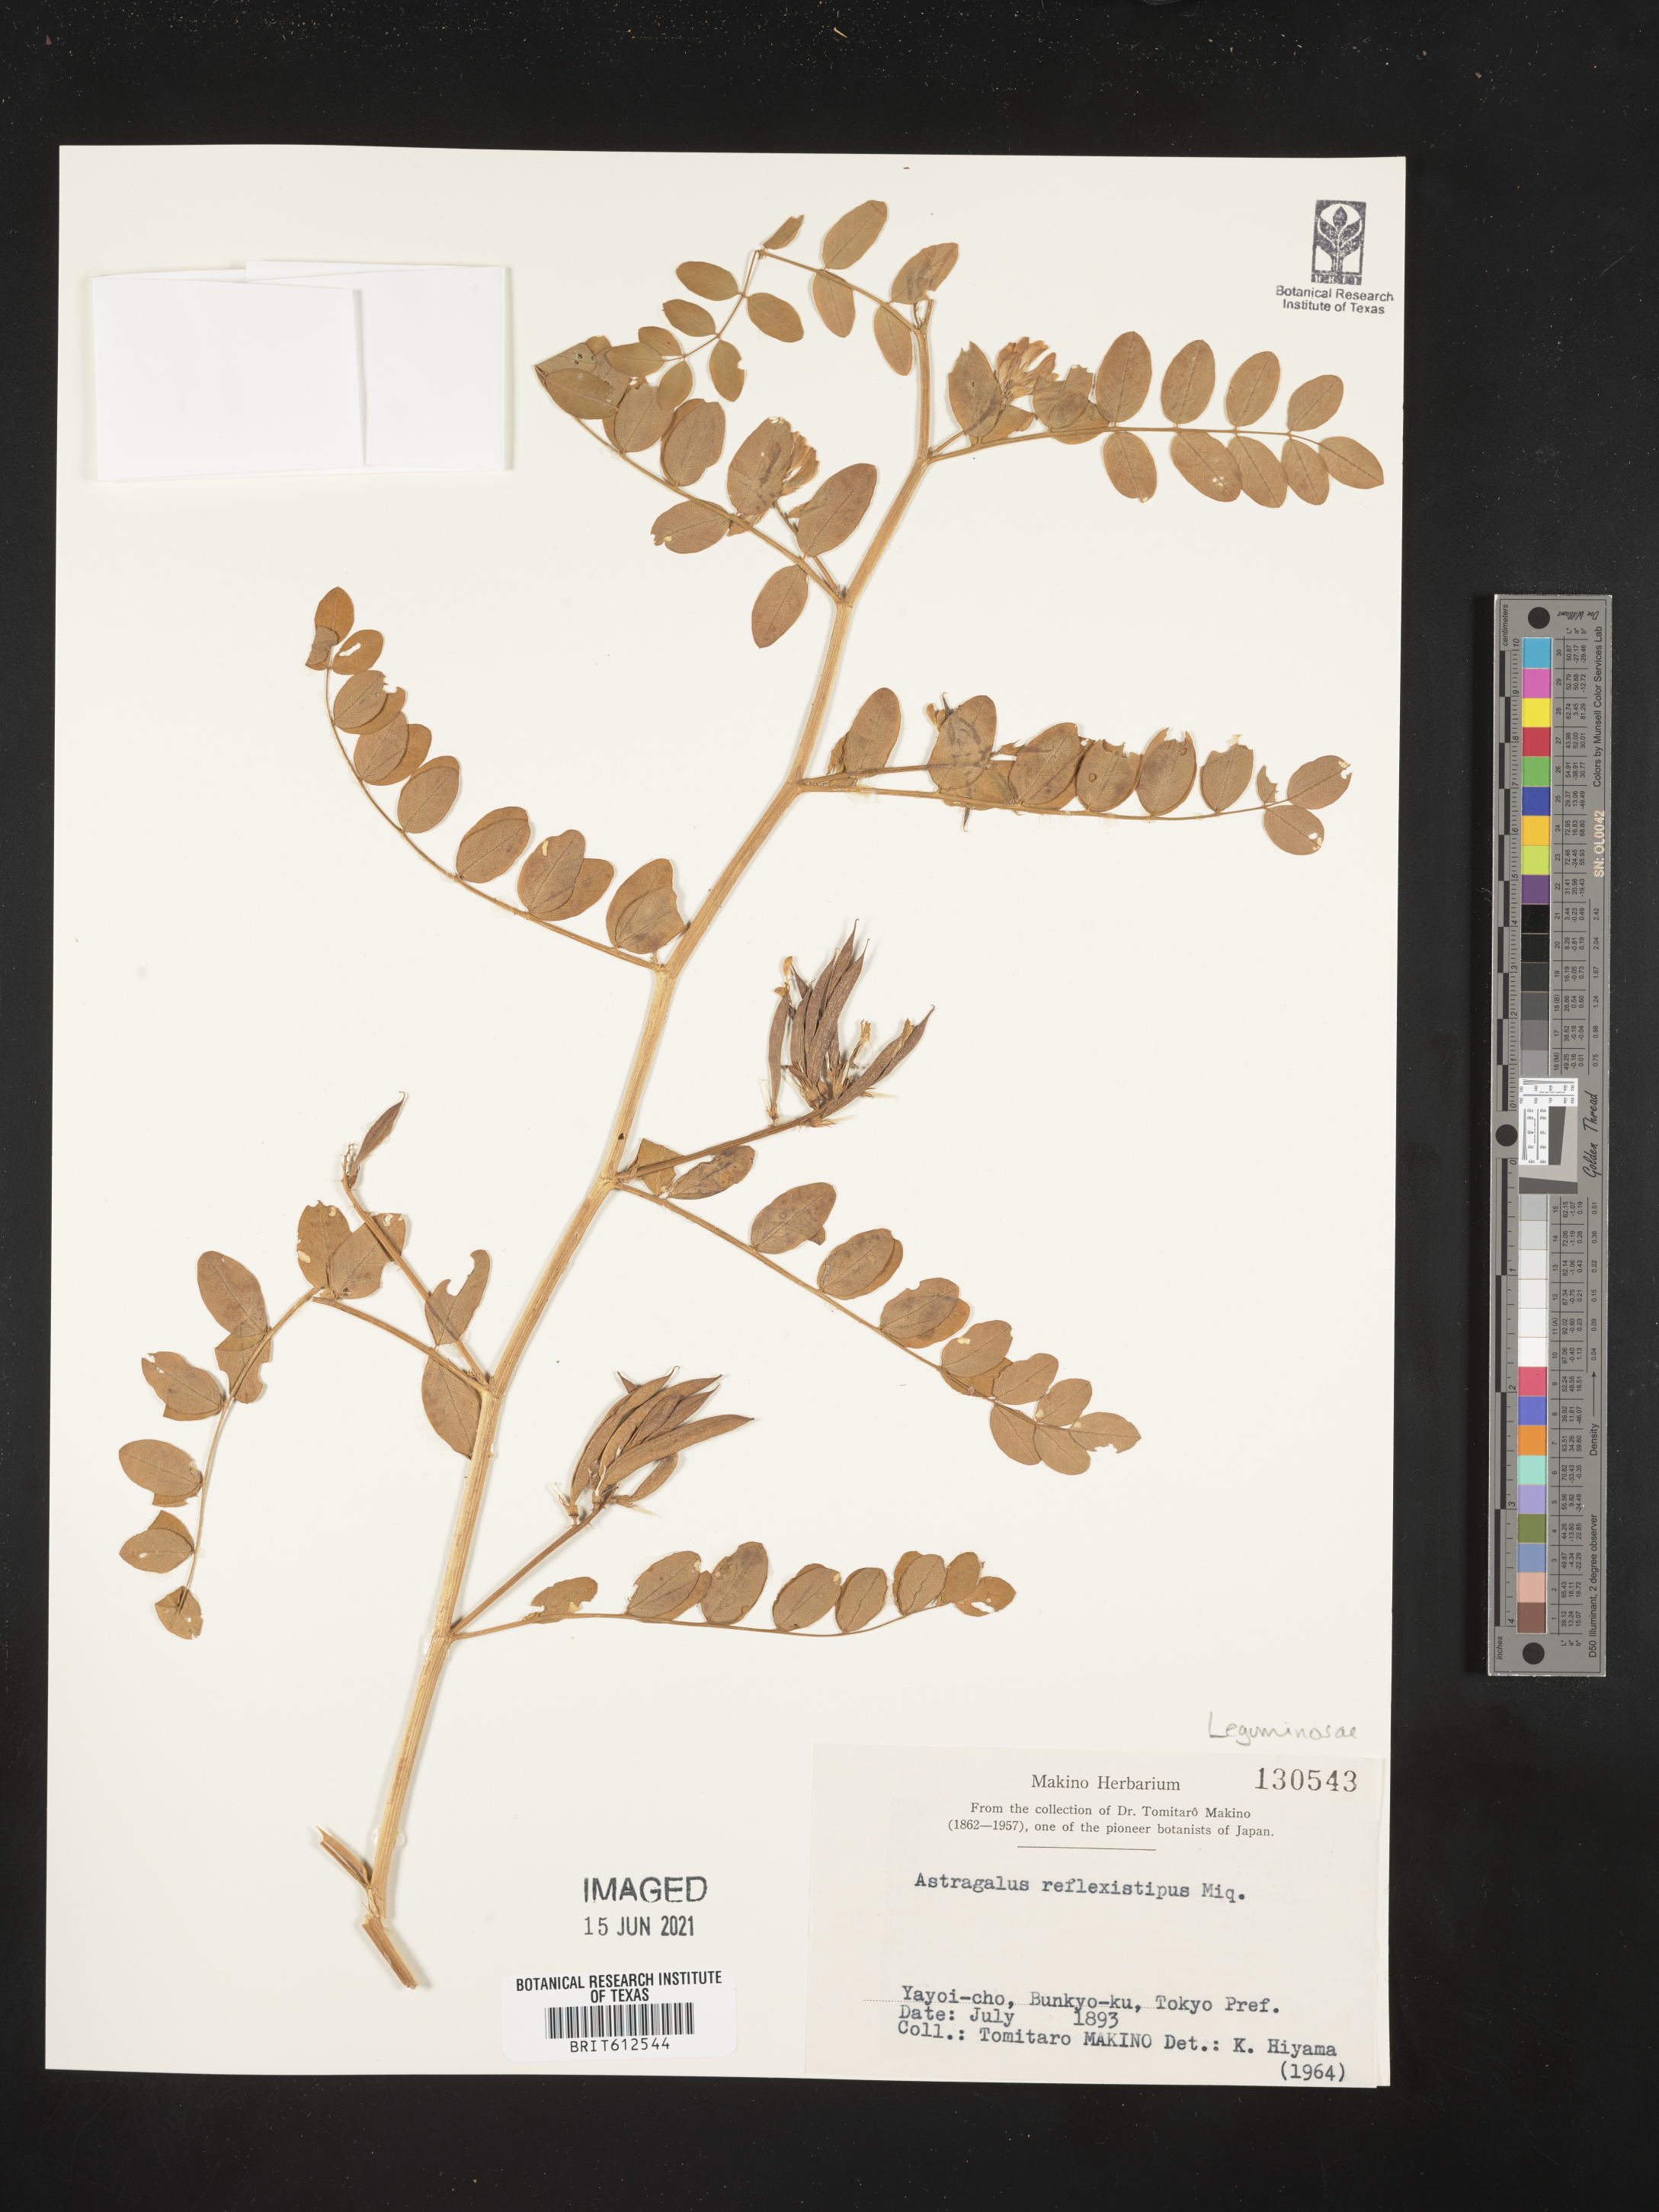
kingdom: Plantae
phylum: Tracheophyta
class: Magnoliopsida
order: Fabales
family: Fabaceae
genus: Astragalus
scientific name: Astragalus reflexistipulus
